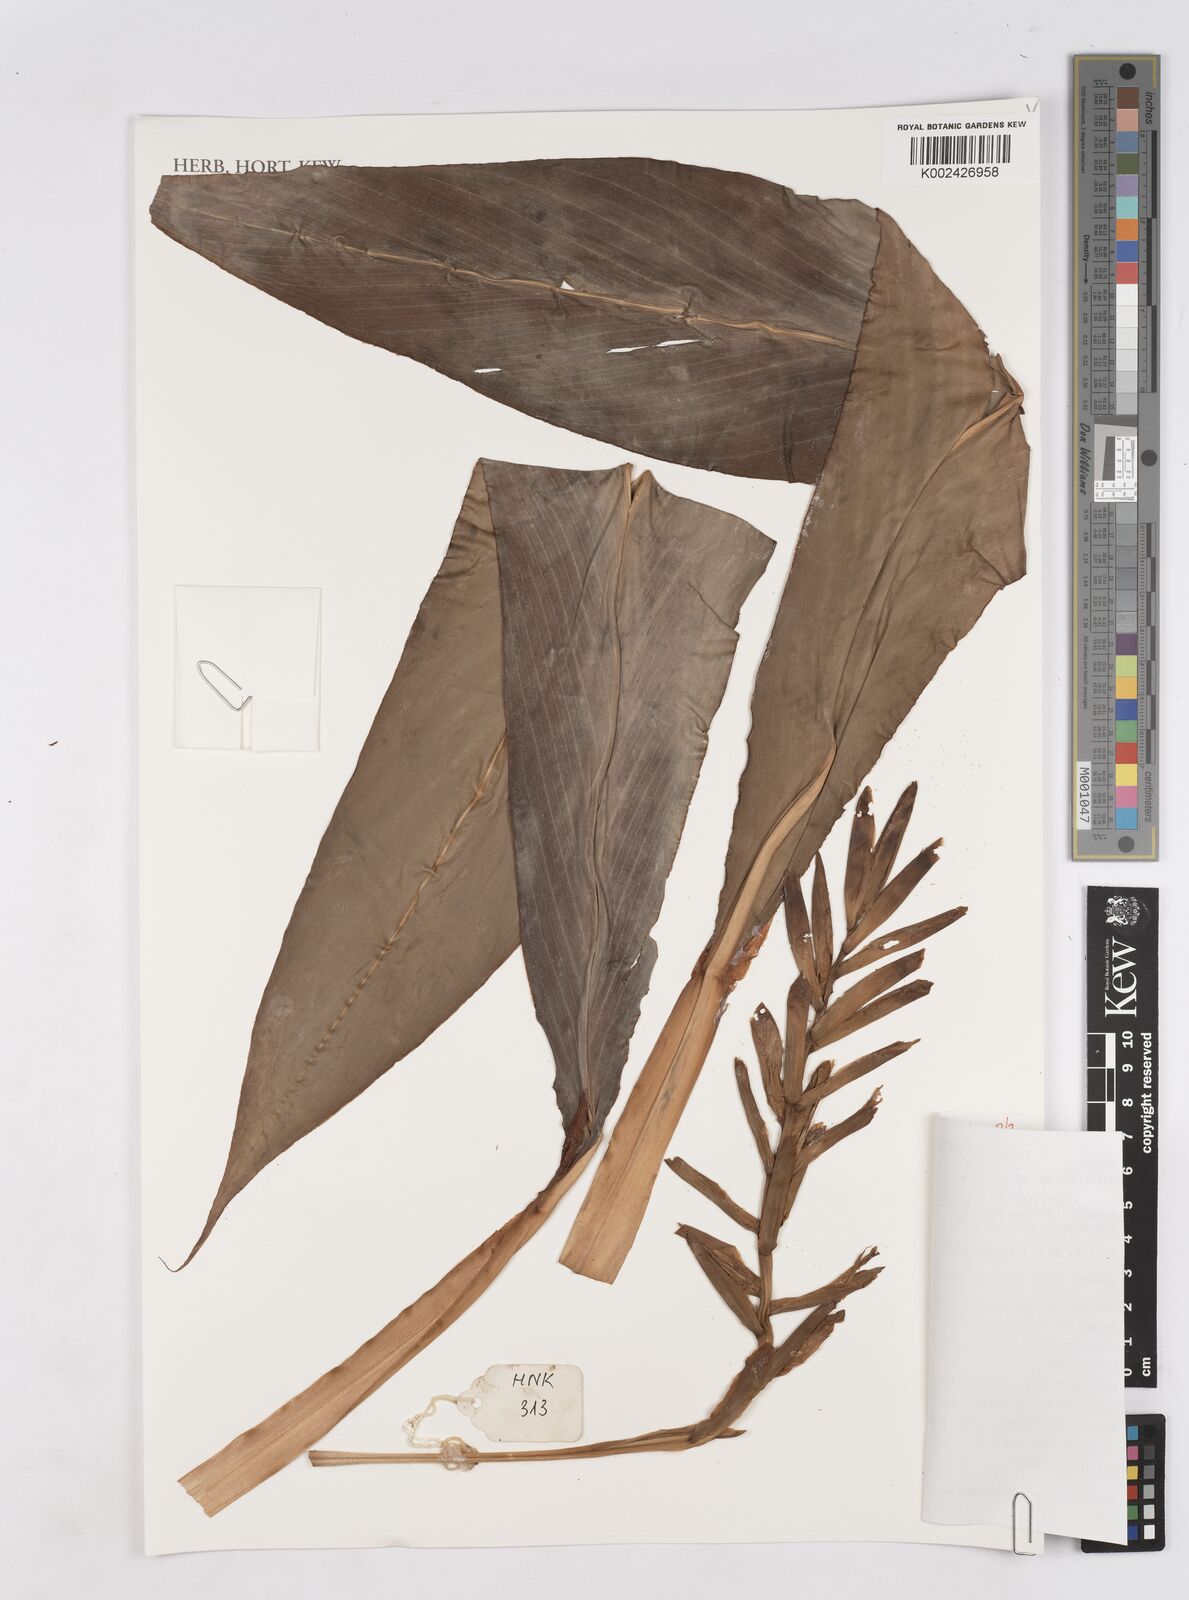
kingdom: Plantae
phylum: Tracheophyta
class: Liliopsida
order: Zingiberales
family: Zingiberaceae
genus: Hedychium
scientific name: Hedychium
